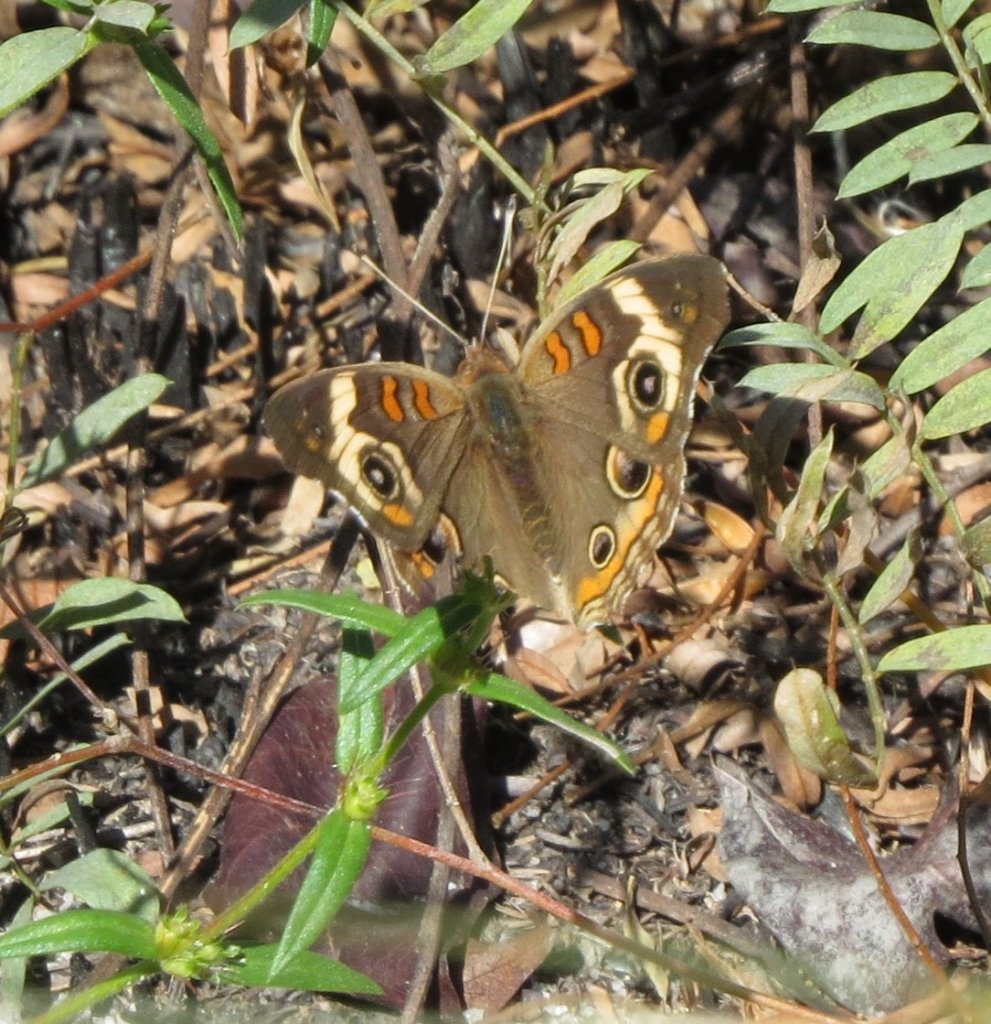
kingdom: Animalia
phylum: Arthropoda
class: Insecta
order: Lepidoptera
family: Nymphalidae
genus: Junonia
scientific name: Junonia coenia
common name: Common Buckeye
